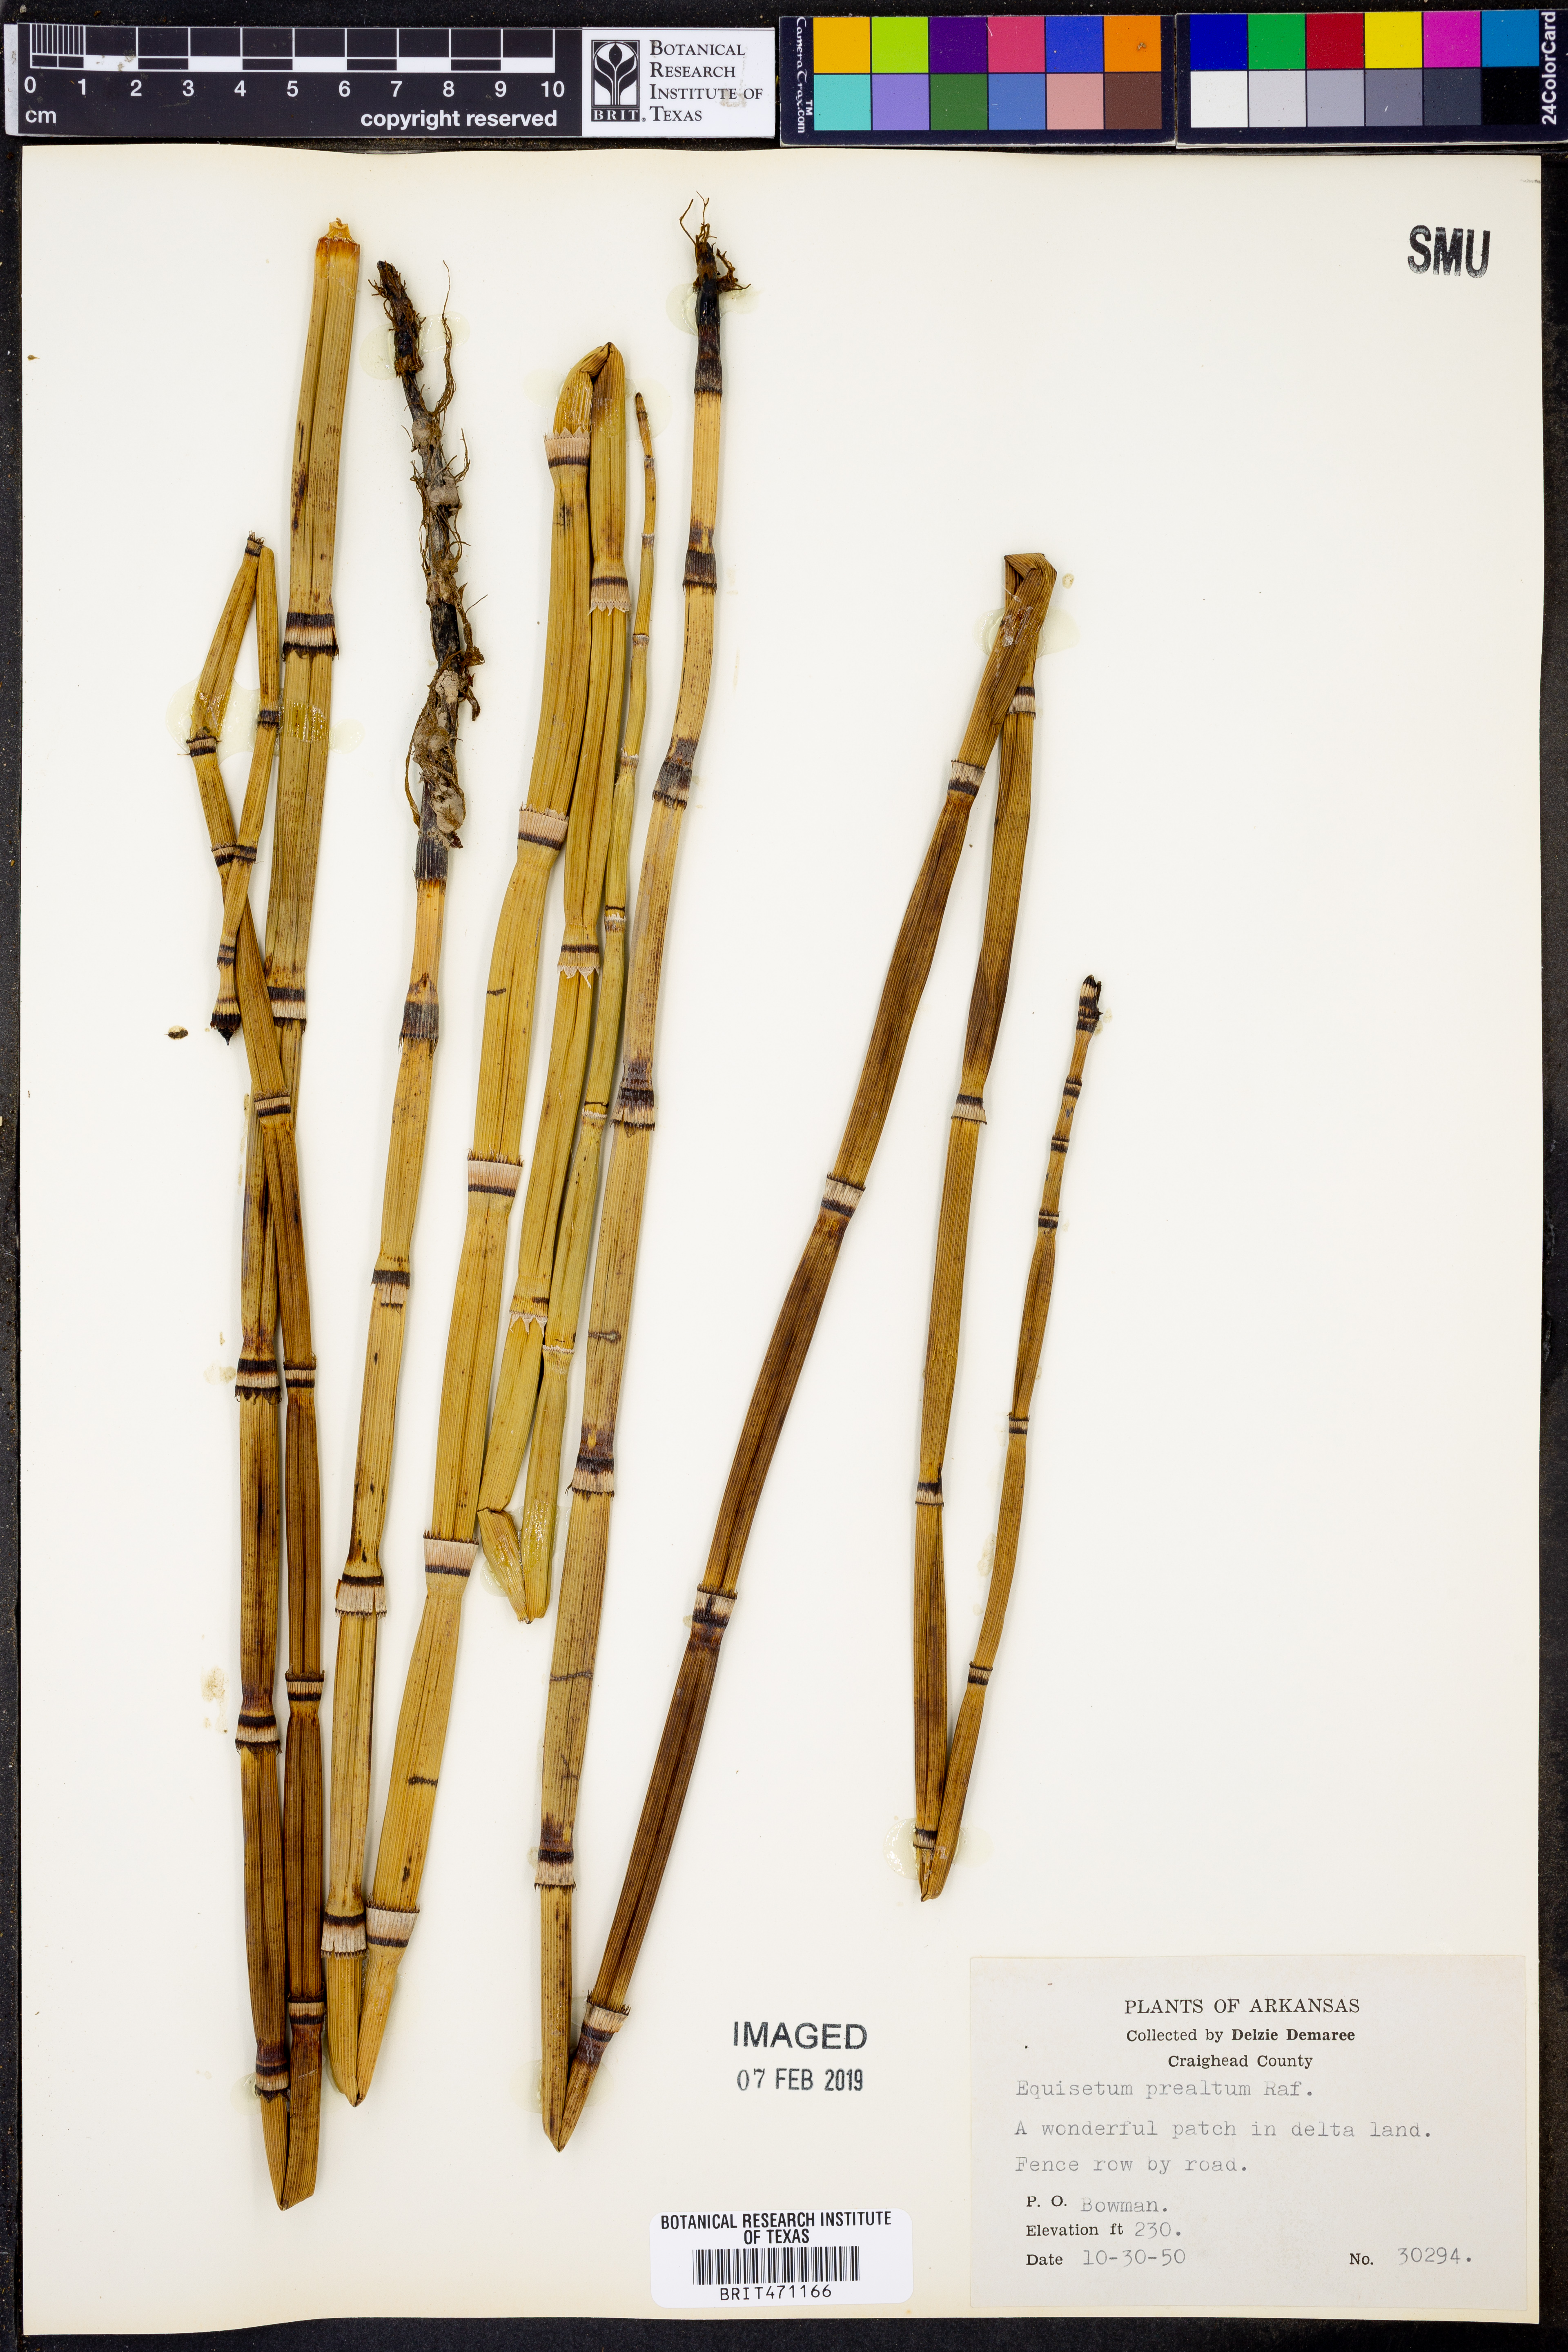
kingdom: Plantae
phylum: Tracheophyta
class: Polypodiopsida
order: Equisetales
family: Equisetaceae
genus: Equisetum
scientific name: Equisetum praealtum
